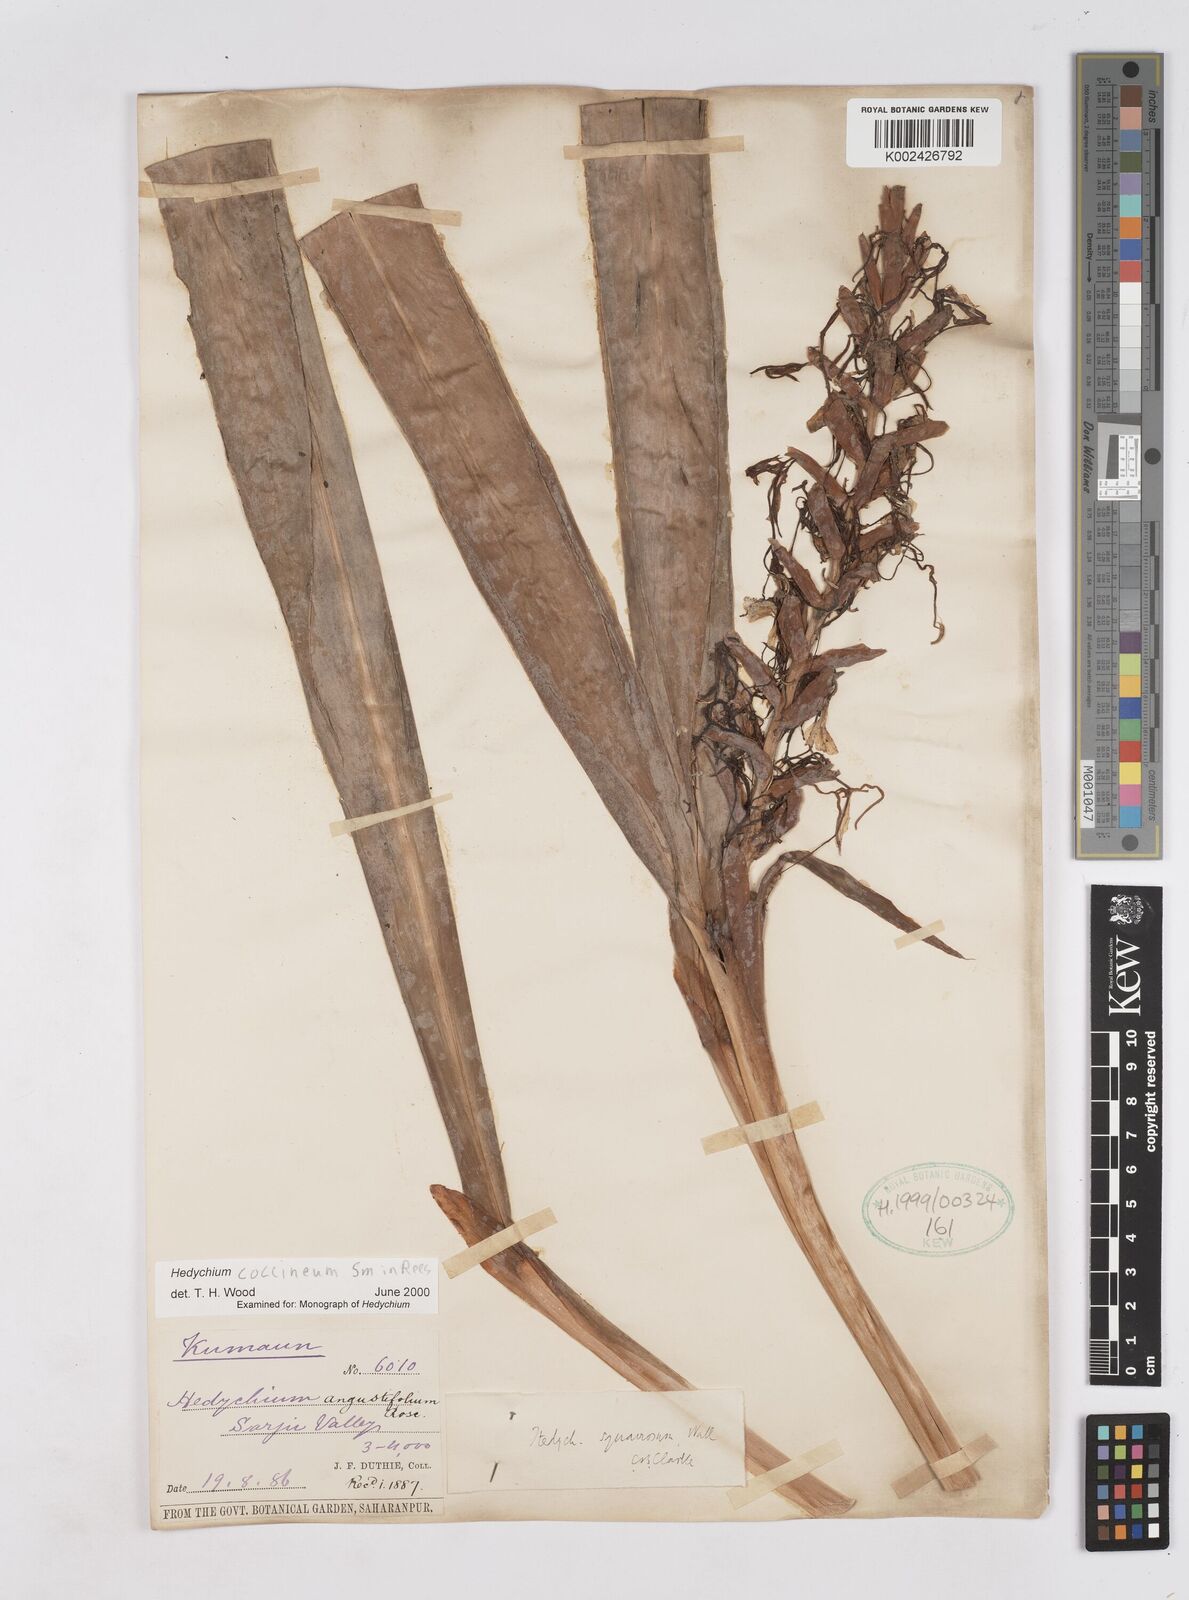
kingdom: Plantae
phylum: Tracheophyta
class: Liliopsida
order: Zingiberales
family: Zingiberaceae
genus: Hedychium
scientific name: Hedychium coccineum
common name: Red ginger-lily
